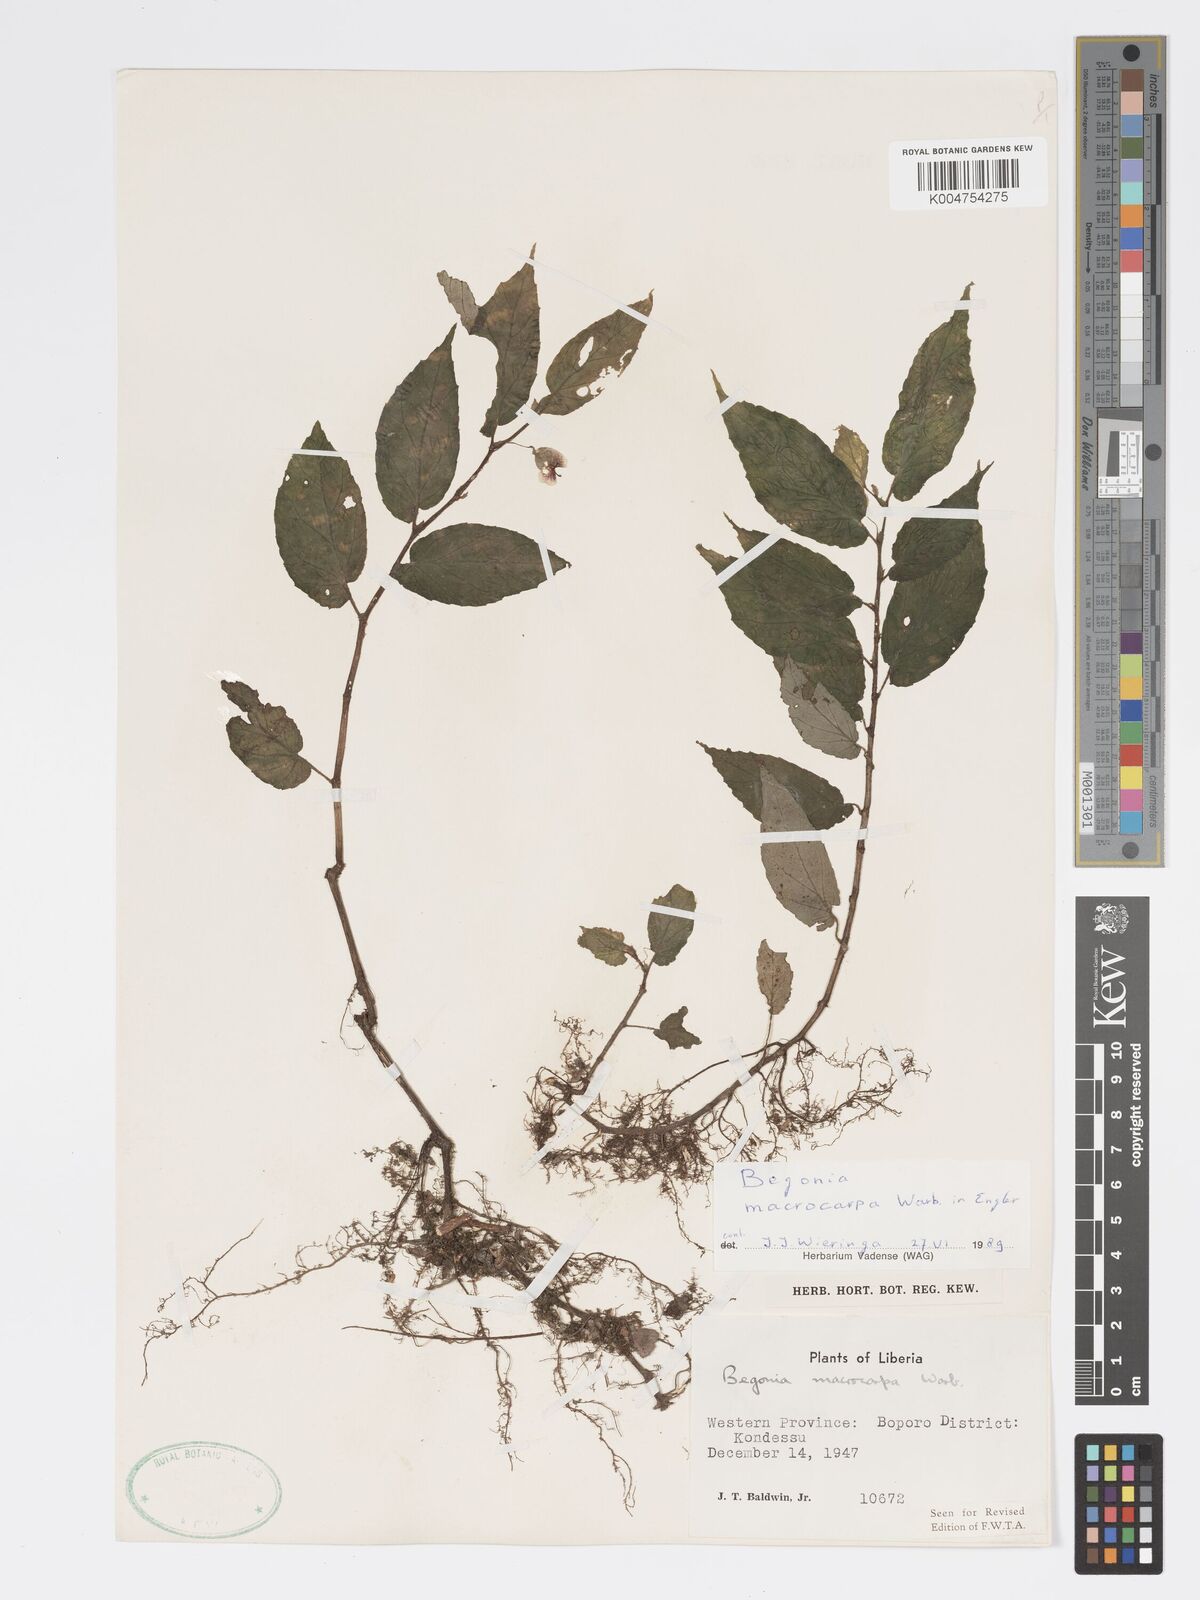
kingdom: Plantae
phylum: Tracheophyta
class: Magnoliopsida
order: Cucurbitales
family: Begoniaceae
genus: Begonia
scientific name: Begonia macrocarpa
